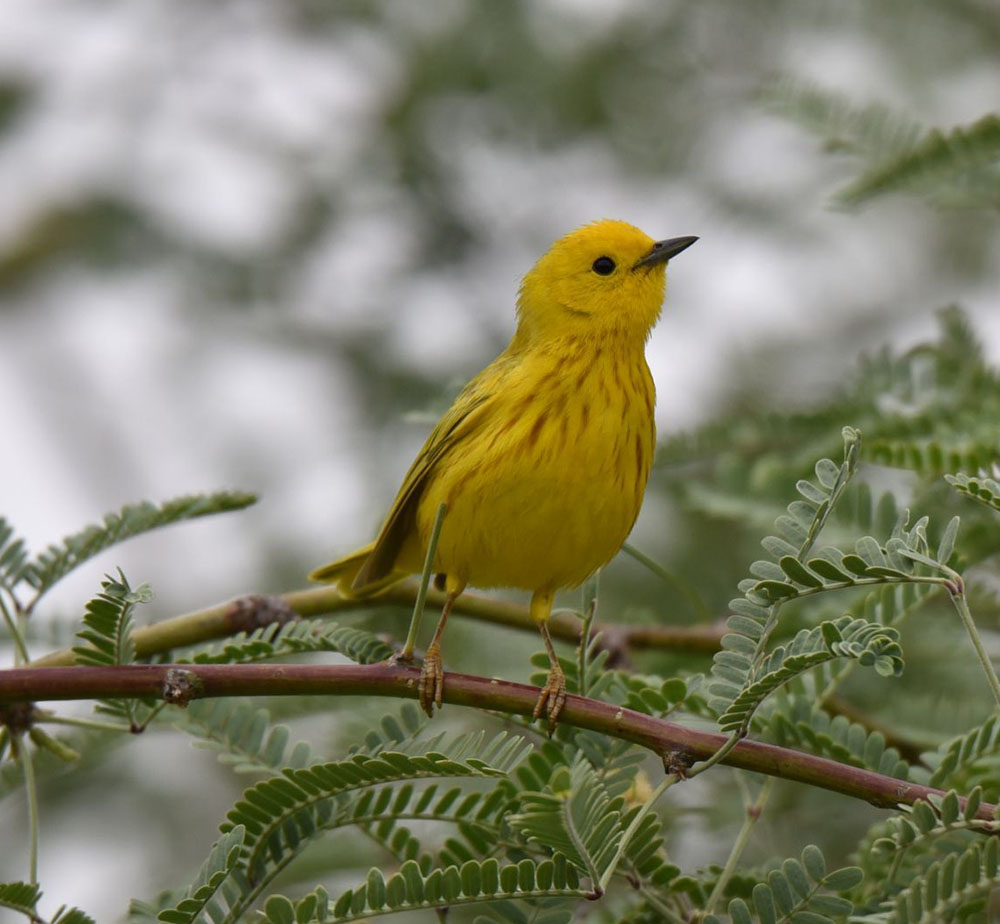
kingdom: Animalia
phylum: Chordata
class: Aves
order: Passeriformes
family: Parulidae
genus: Setophaga
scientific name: Setophaga petechia
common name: Yellow warbler
